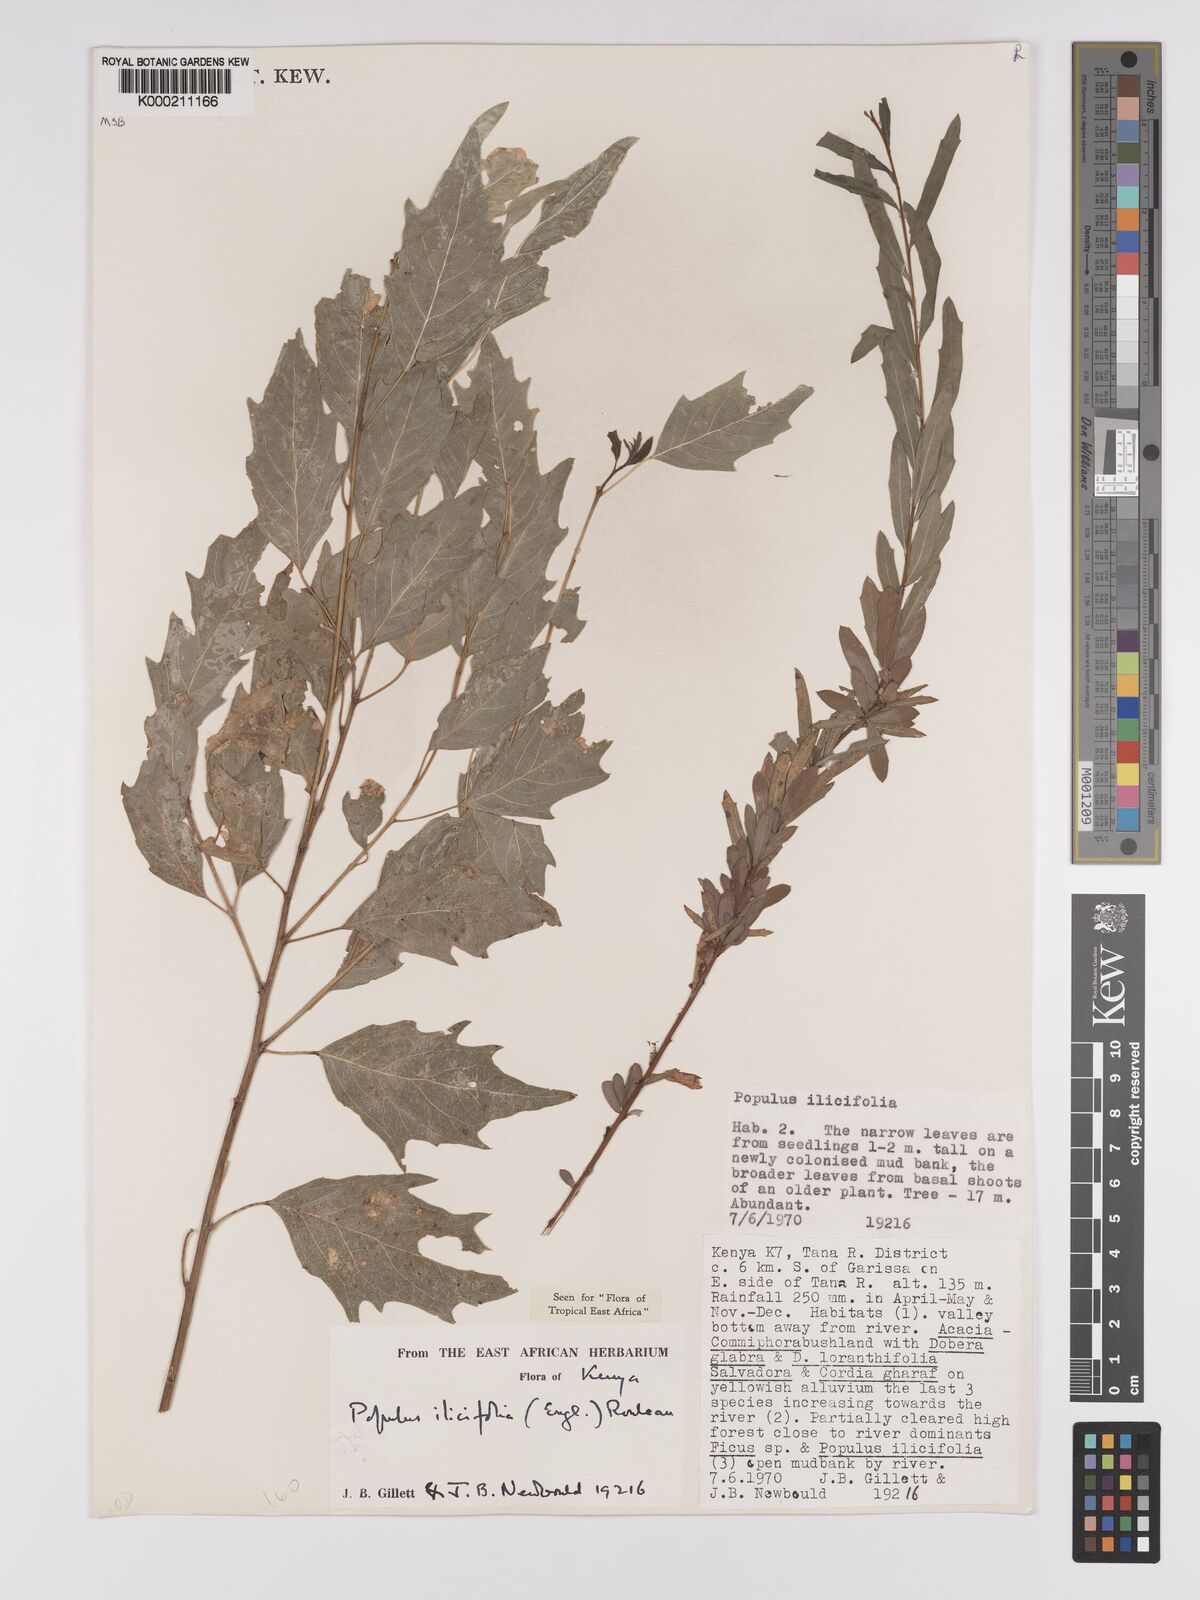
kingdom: Plantae
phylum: Tracheophyta
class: Magnoliopsida
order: Malpighiales
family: Salicaceae
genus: Populus
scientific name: Populus ilicifolia
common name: Tana river poplar
